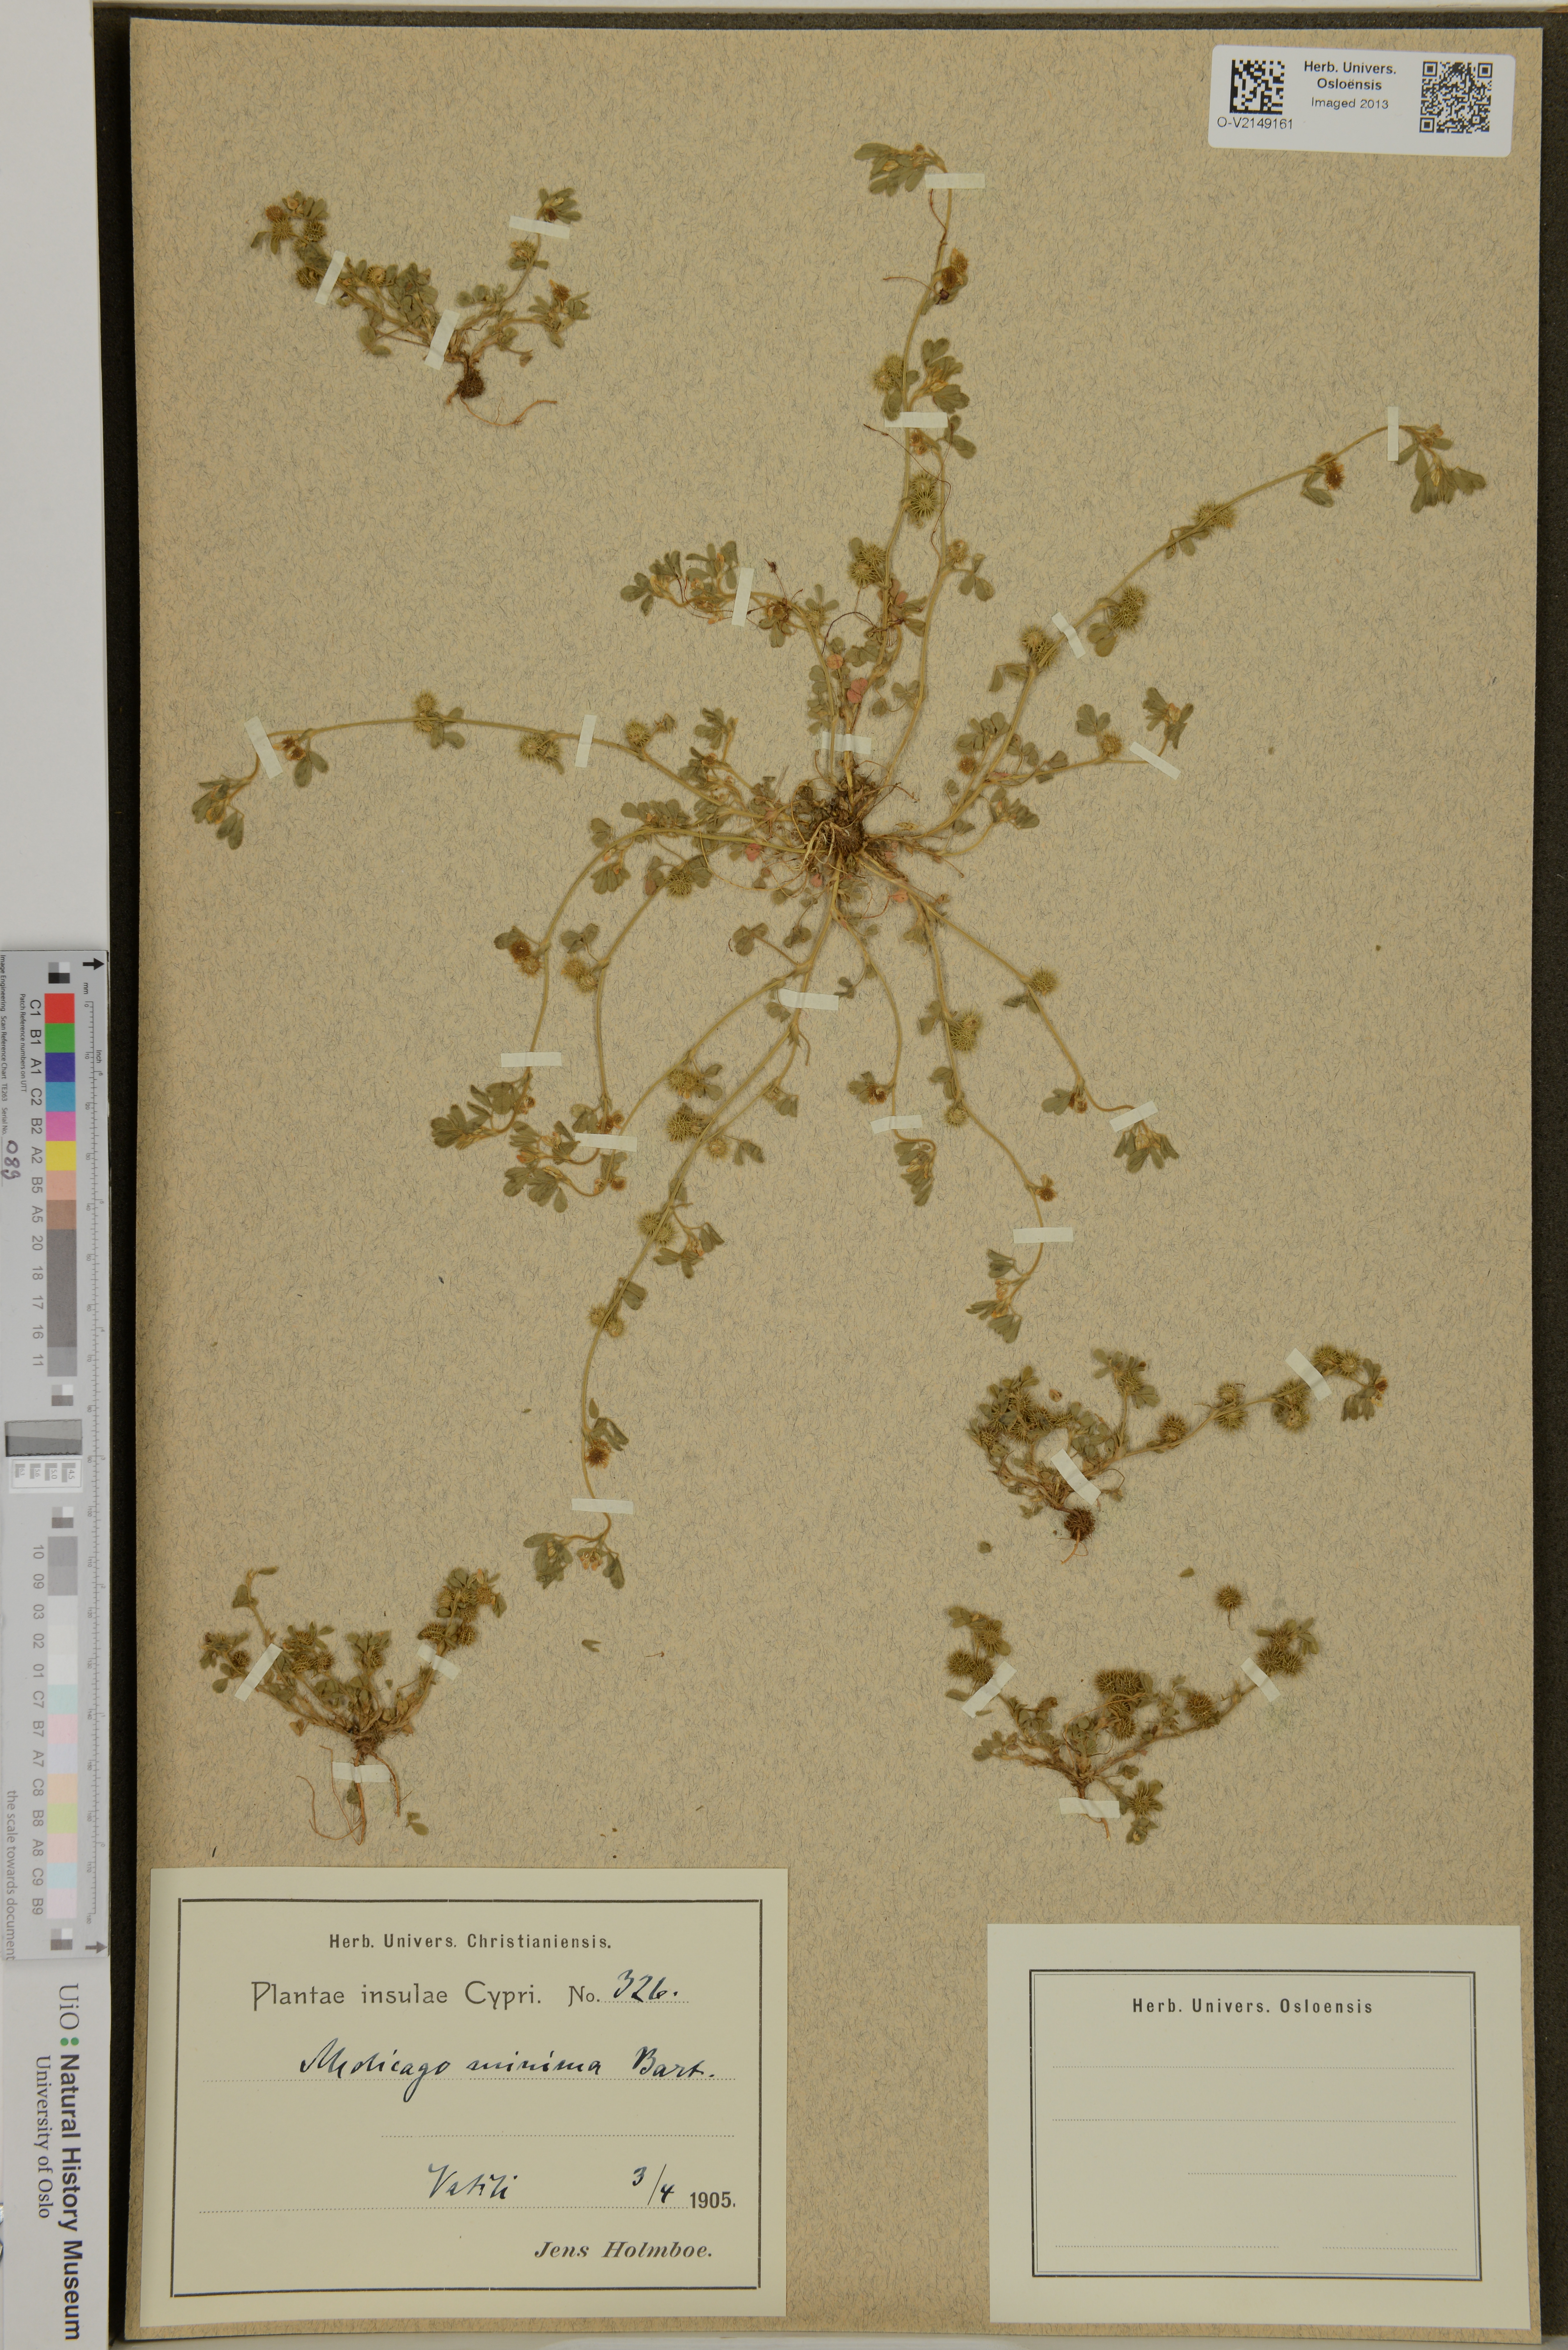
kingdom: Plantae
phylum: Tracheophyta
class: Magnoliopsida
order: Fabales
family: Fabaceae
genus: Medicago
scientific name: Medicago minima
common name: Little bur-clover
